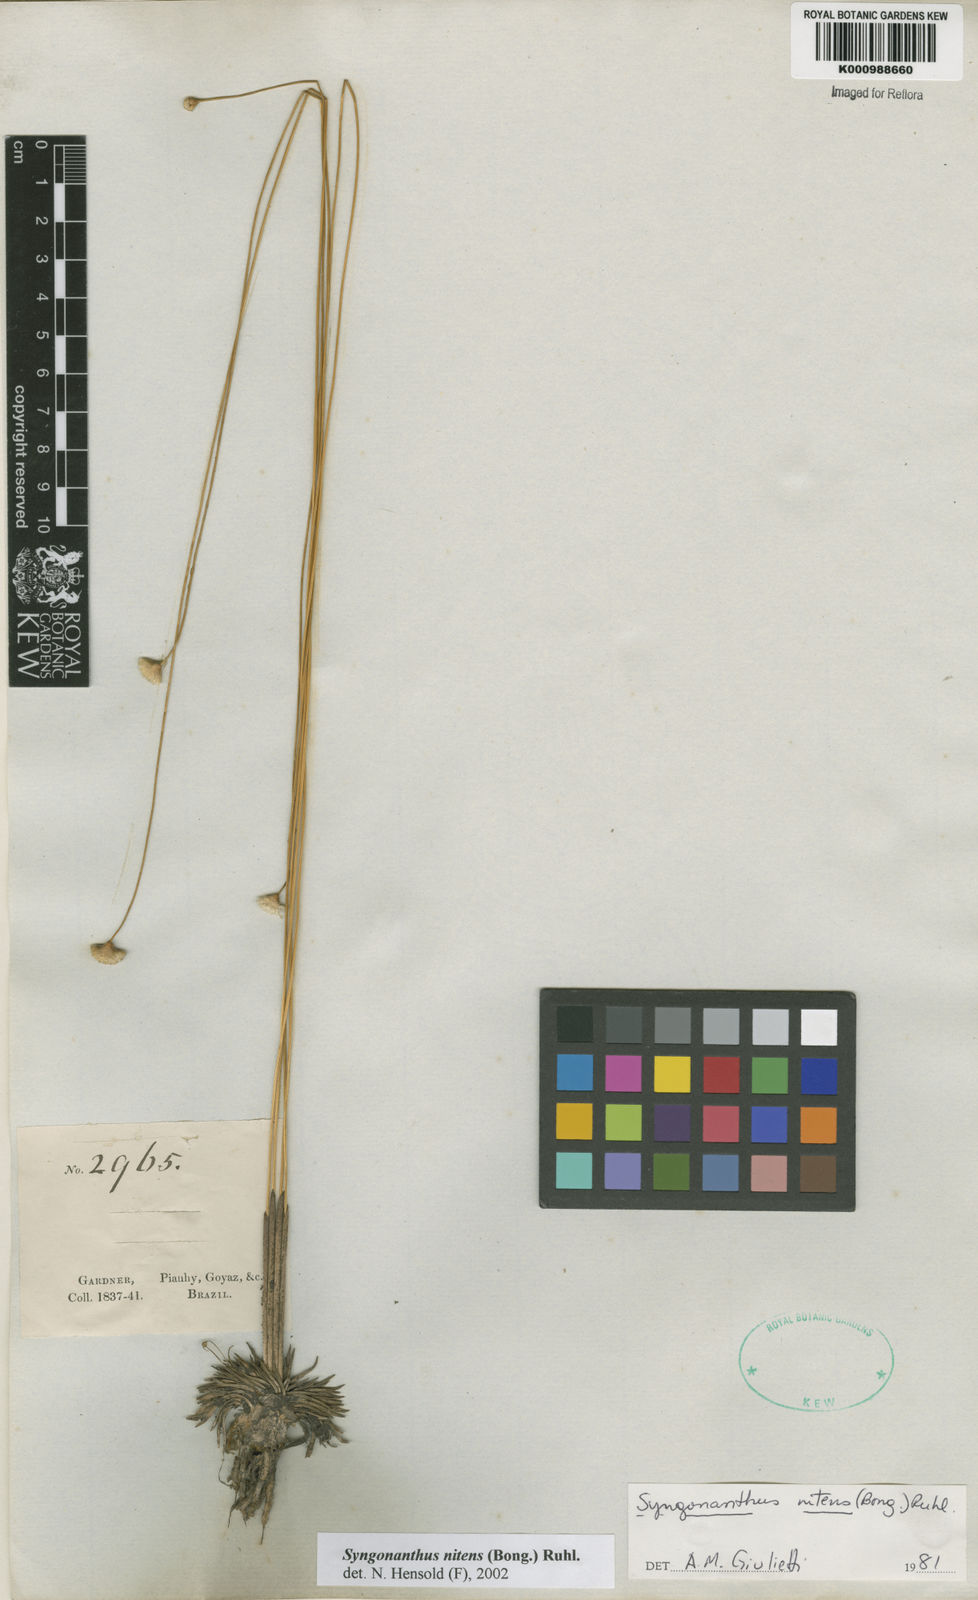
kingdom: Plantae
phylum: Tracheophyta
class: Liliopsida
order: Poales
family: Eriocaulaceae
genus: Syngonanthus
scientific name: Syngonanthus nitens
